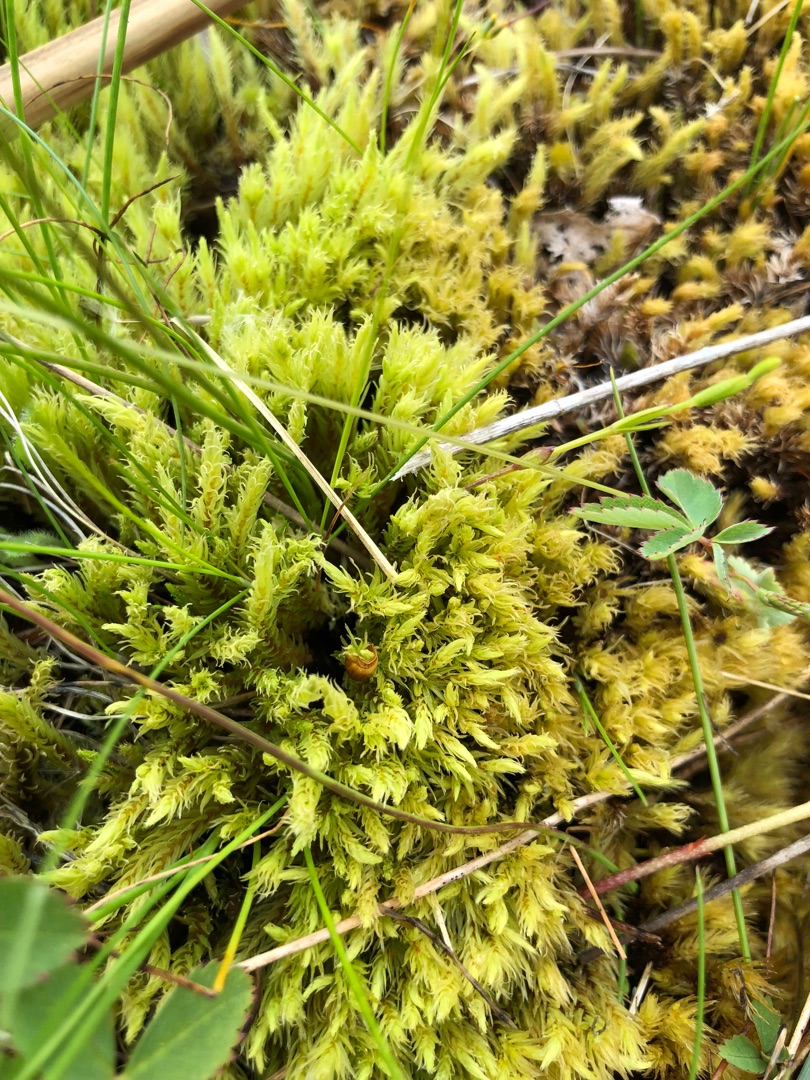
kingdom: Plantae
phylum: Bryophyta
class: Bryopsida
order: Aulacomniales
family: Aulacomniaceae
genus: Aulacomnium
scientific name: Aulacomnium palustre
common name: Almindelig filtmos
